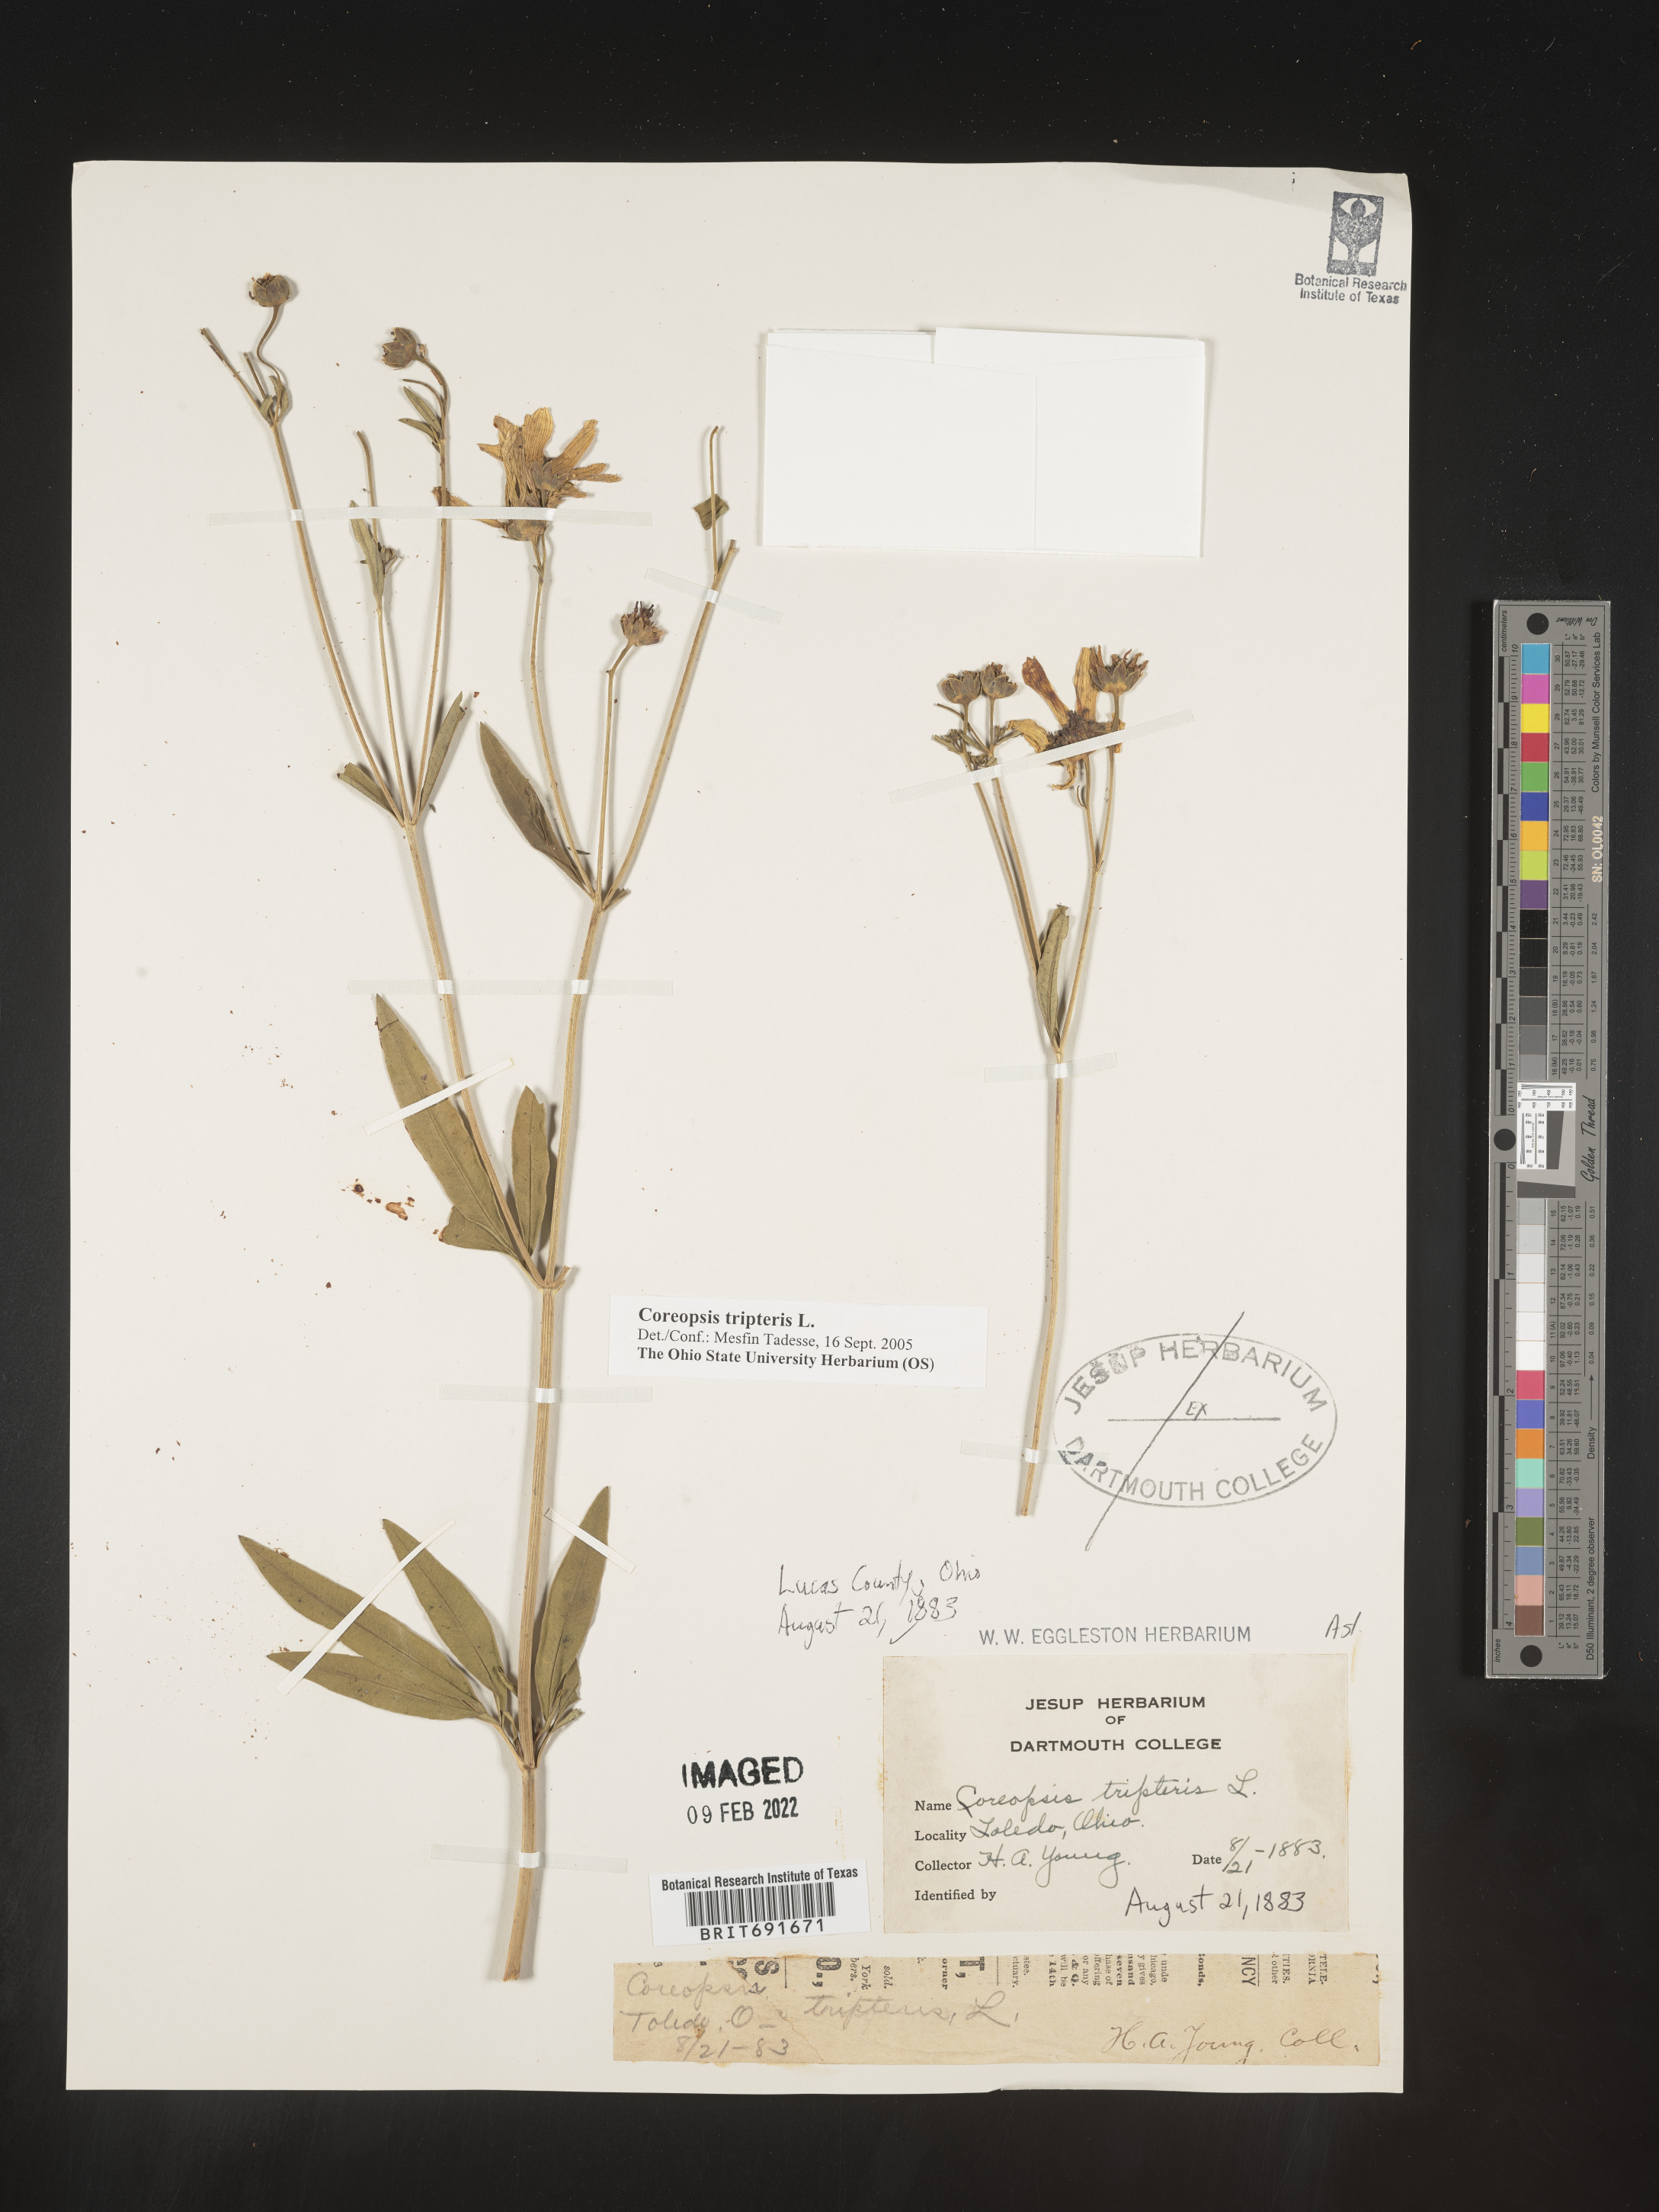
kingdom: Plantae
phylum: Tracheophyta
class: Magnoliopsida
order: Asterales
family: Asteraceae
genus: Coreopsis
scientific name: Coreopsis tripteris
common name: Tall coreopsis
